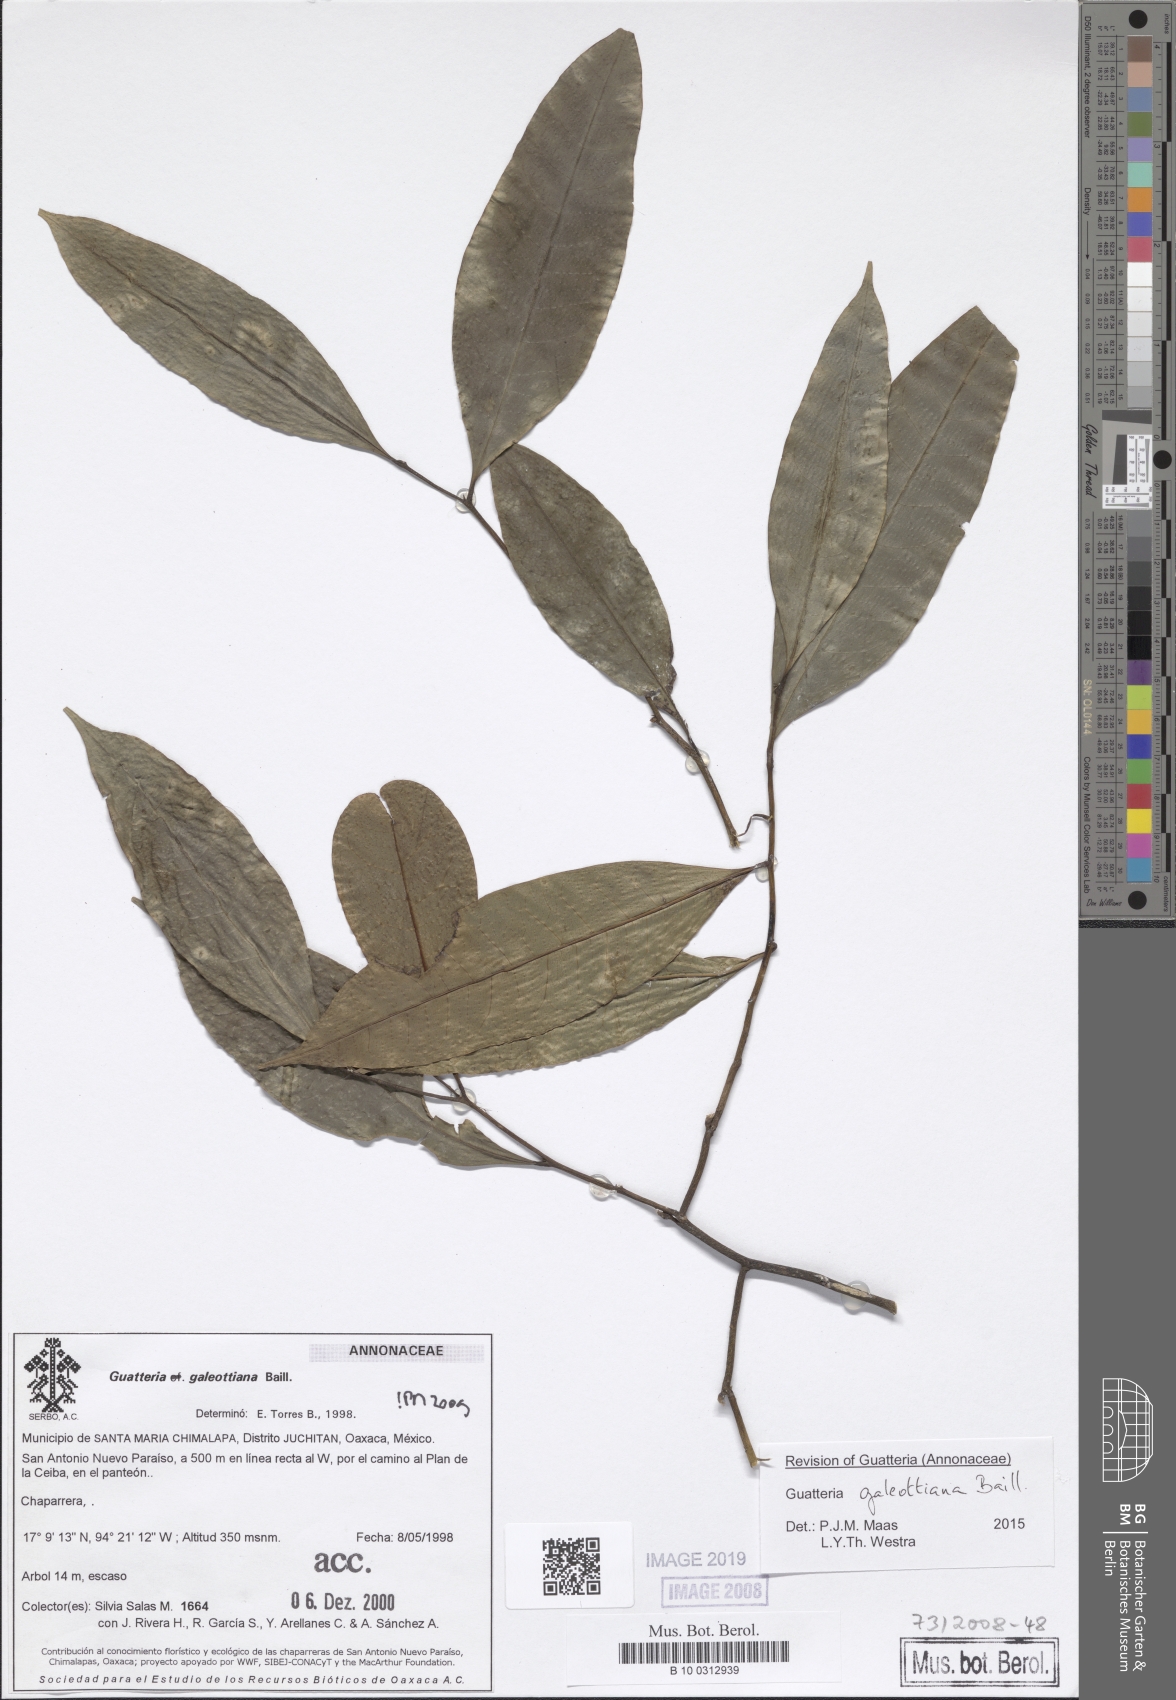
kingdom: Plantae
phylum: Tracheophyta
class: Magnoliopsida
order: Magnoliales
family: Annonaceae
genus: Guatteria
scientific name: Guatteria galeottiana
